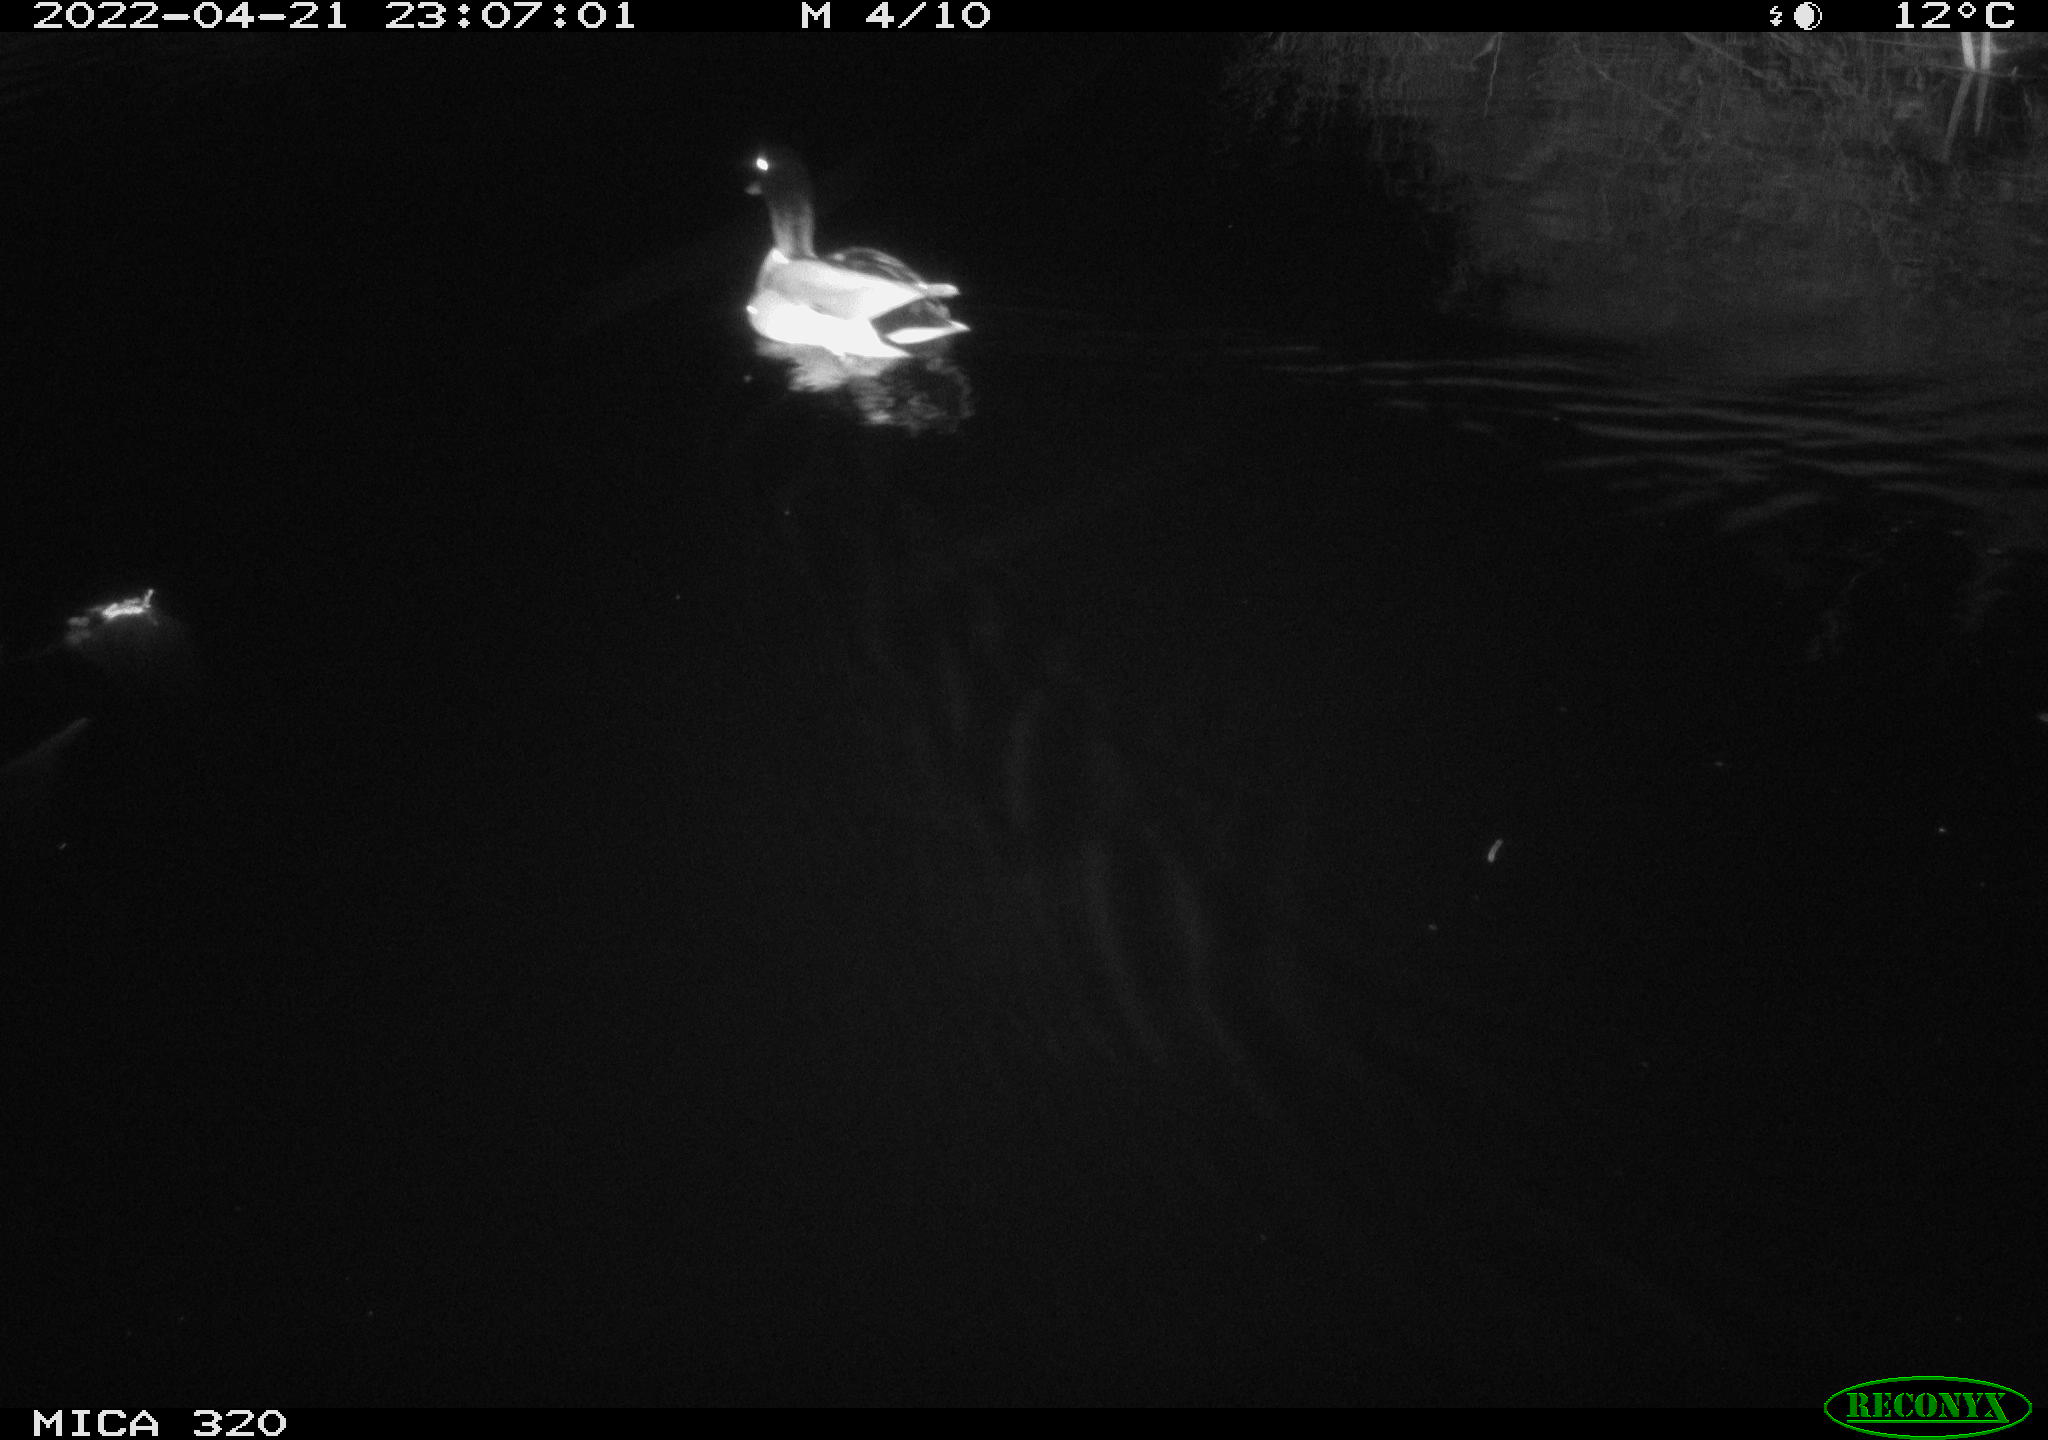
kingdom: Animalia
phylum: Chordata
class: Aves
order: Anseriformes
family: Anatidae
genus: Anas
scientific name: Anas platyrhynchos
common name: Mallard
